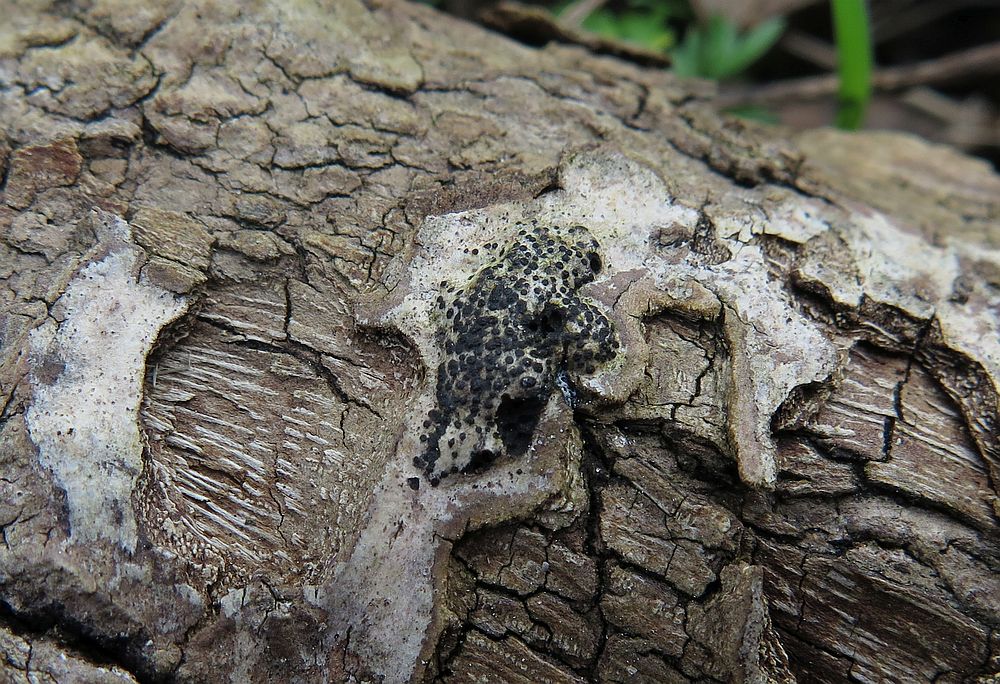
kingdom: Fungi
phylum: Ascomycota
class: Sordariomycetes
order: Diaporthales
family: Valsaceae
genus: Cytospora
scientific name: Cytospora populina
